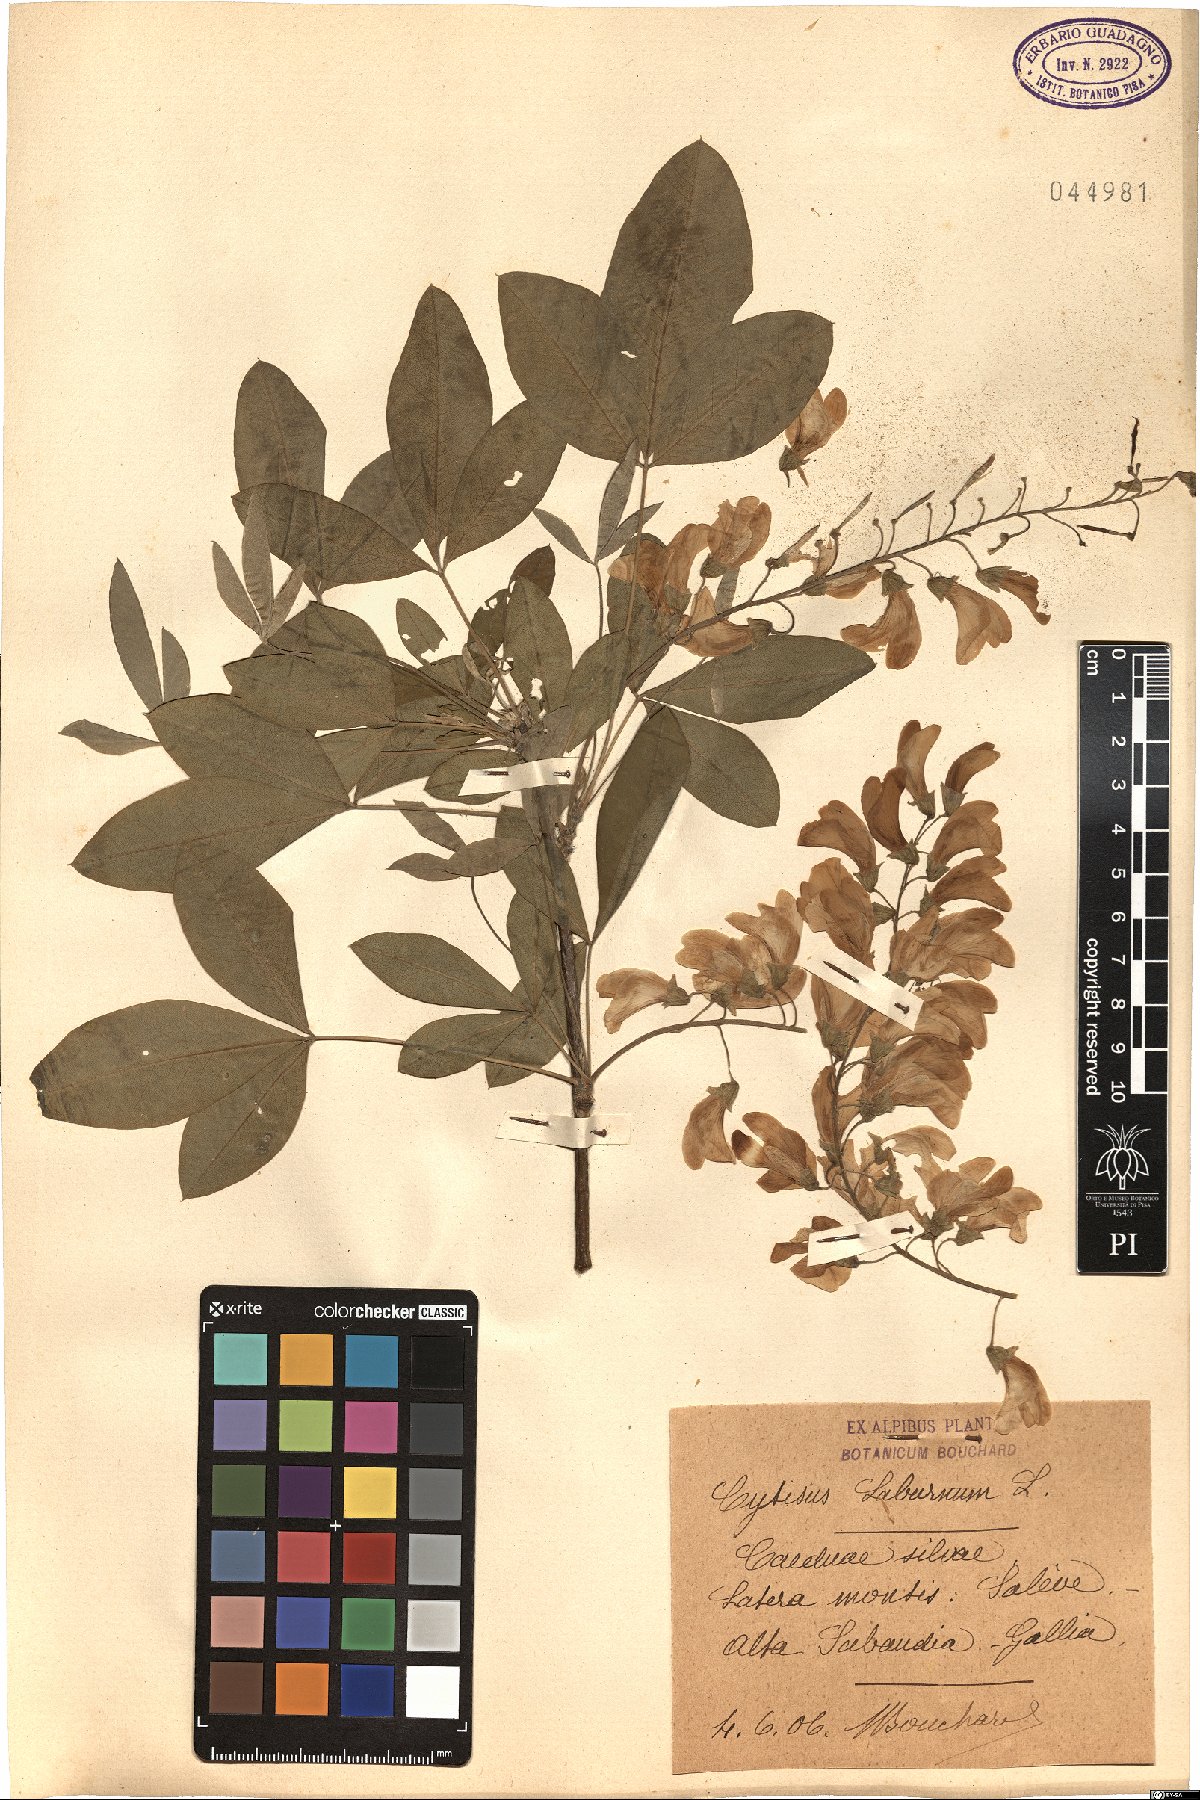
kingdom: Plantae
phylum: Tracheophyta
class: Magnoliopsida
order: Fabales
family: Fabaceae
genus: Laburnum
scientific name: Laburnum anagyroides
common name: Laburnum
